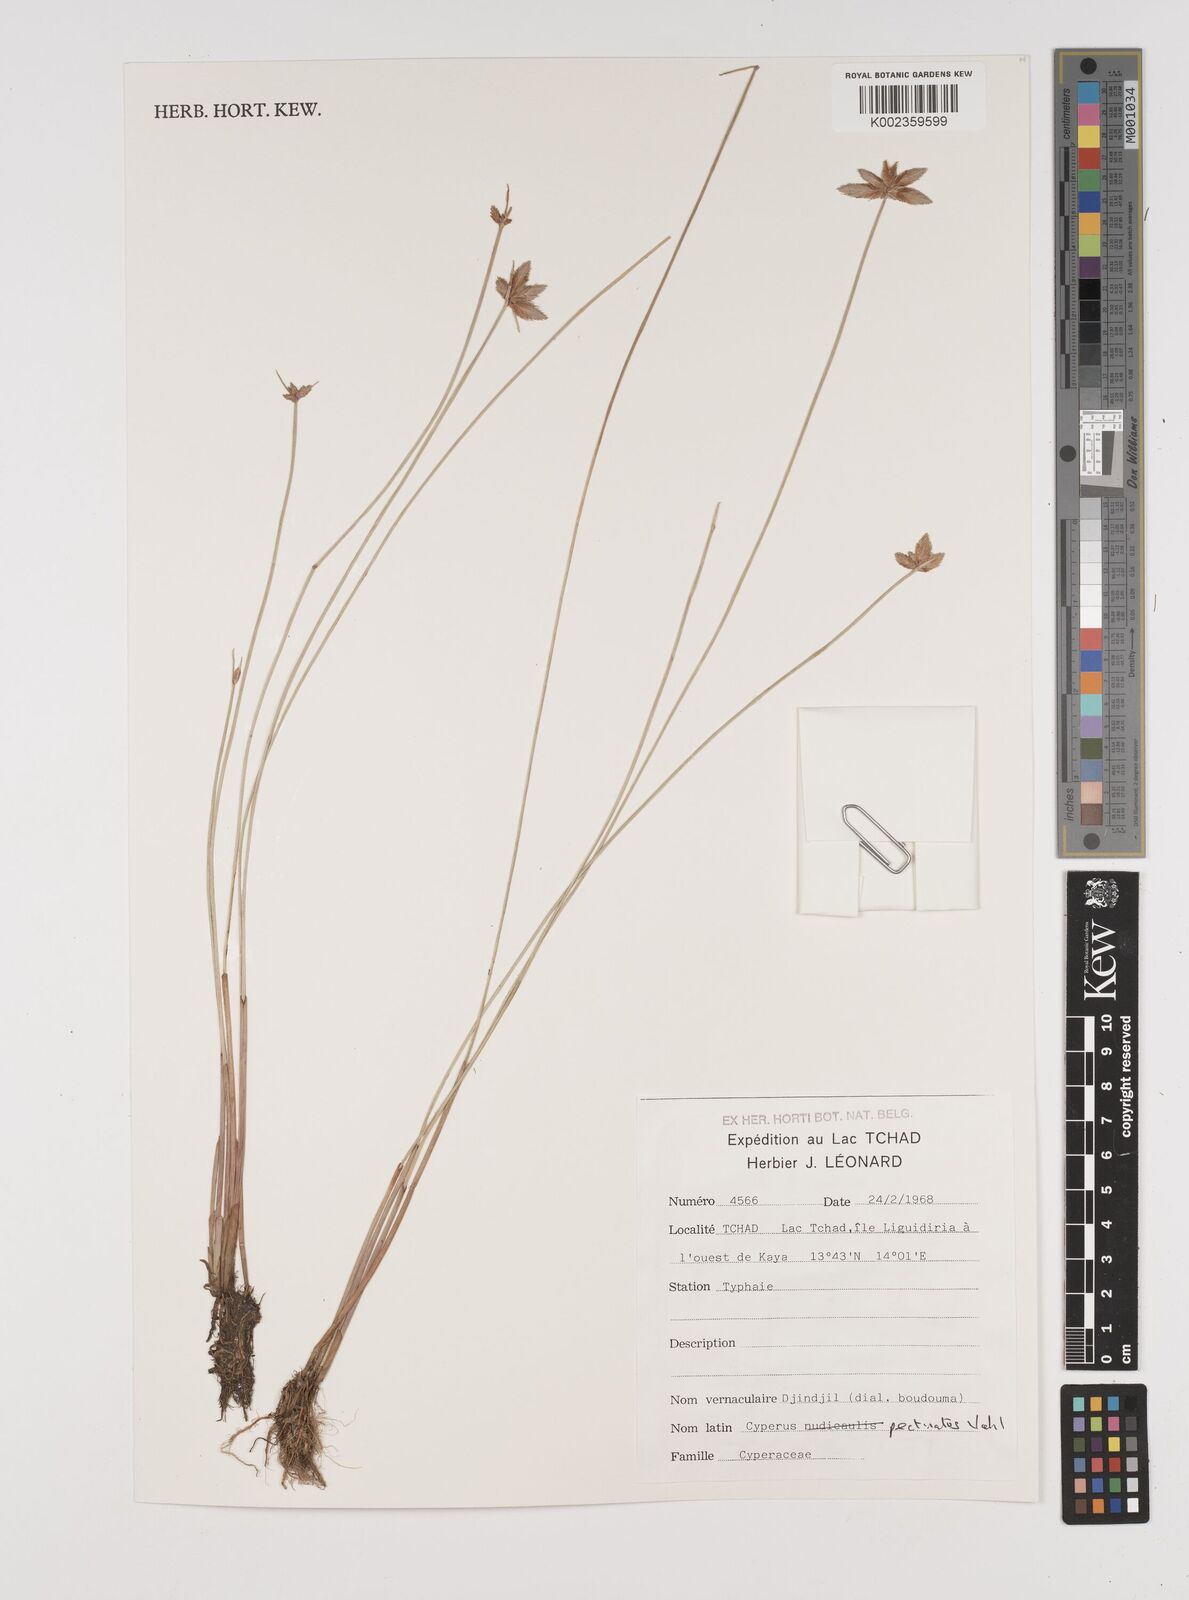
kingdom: Plantae
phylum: Tracheophyta
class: Liliopsida
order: Poales
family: Cyperaceae
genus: Cyperus
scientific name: Cyperus pectinatus
